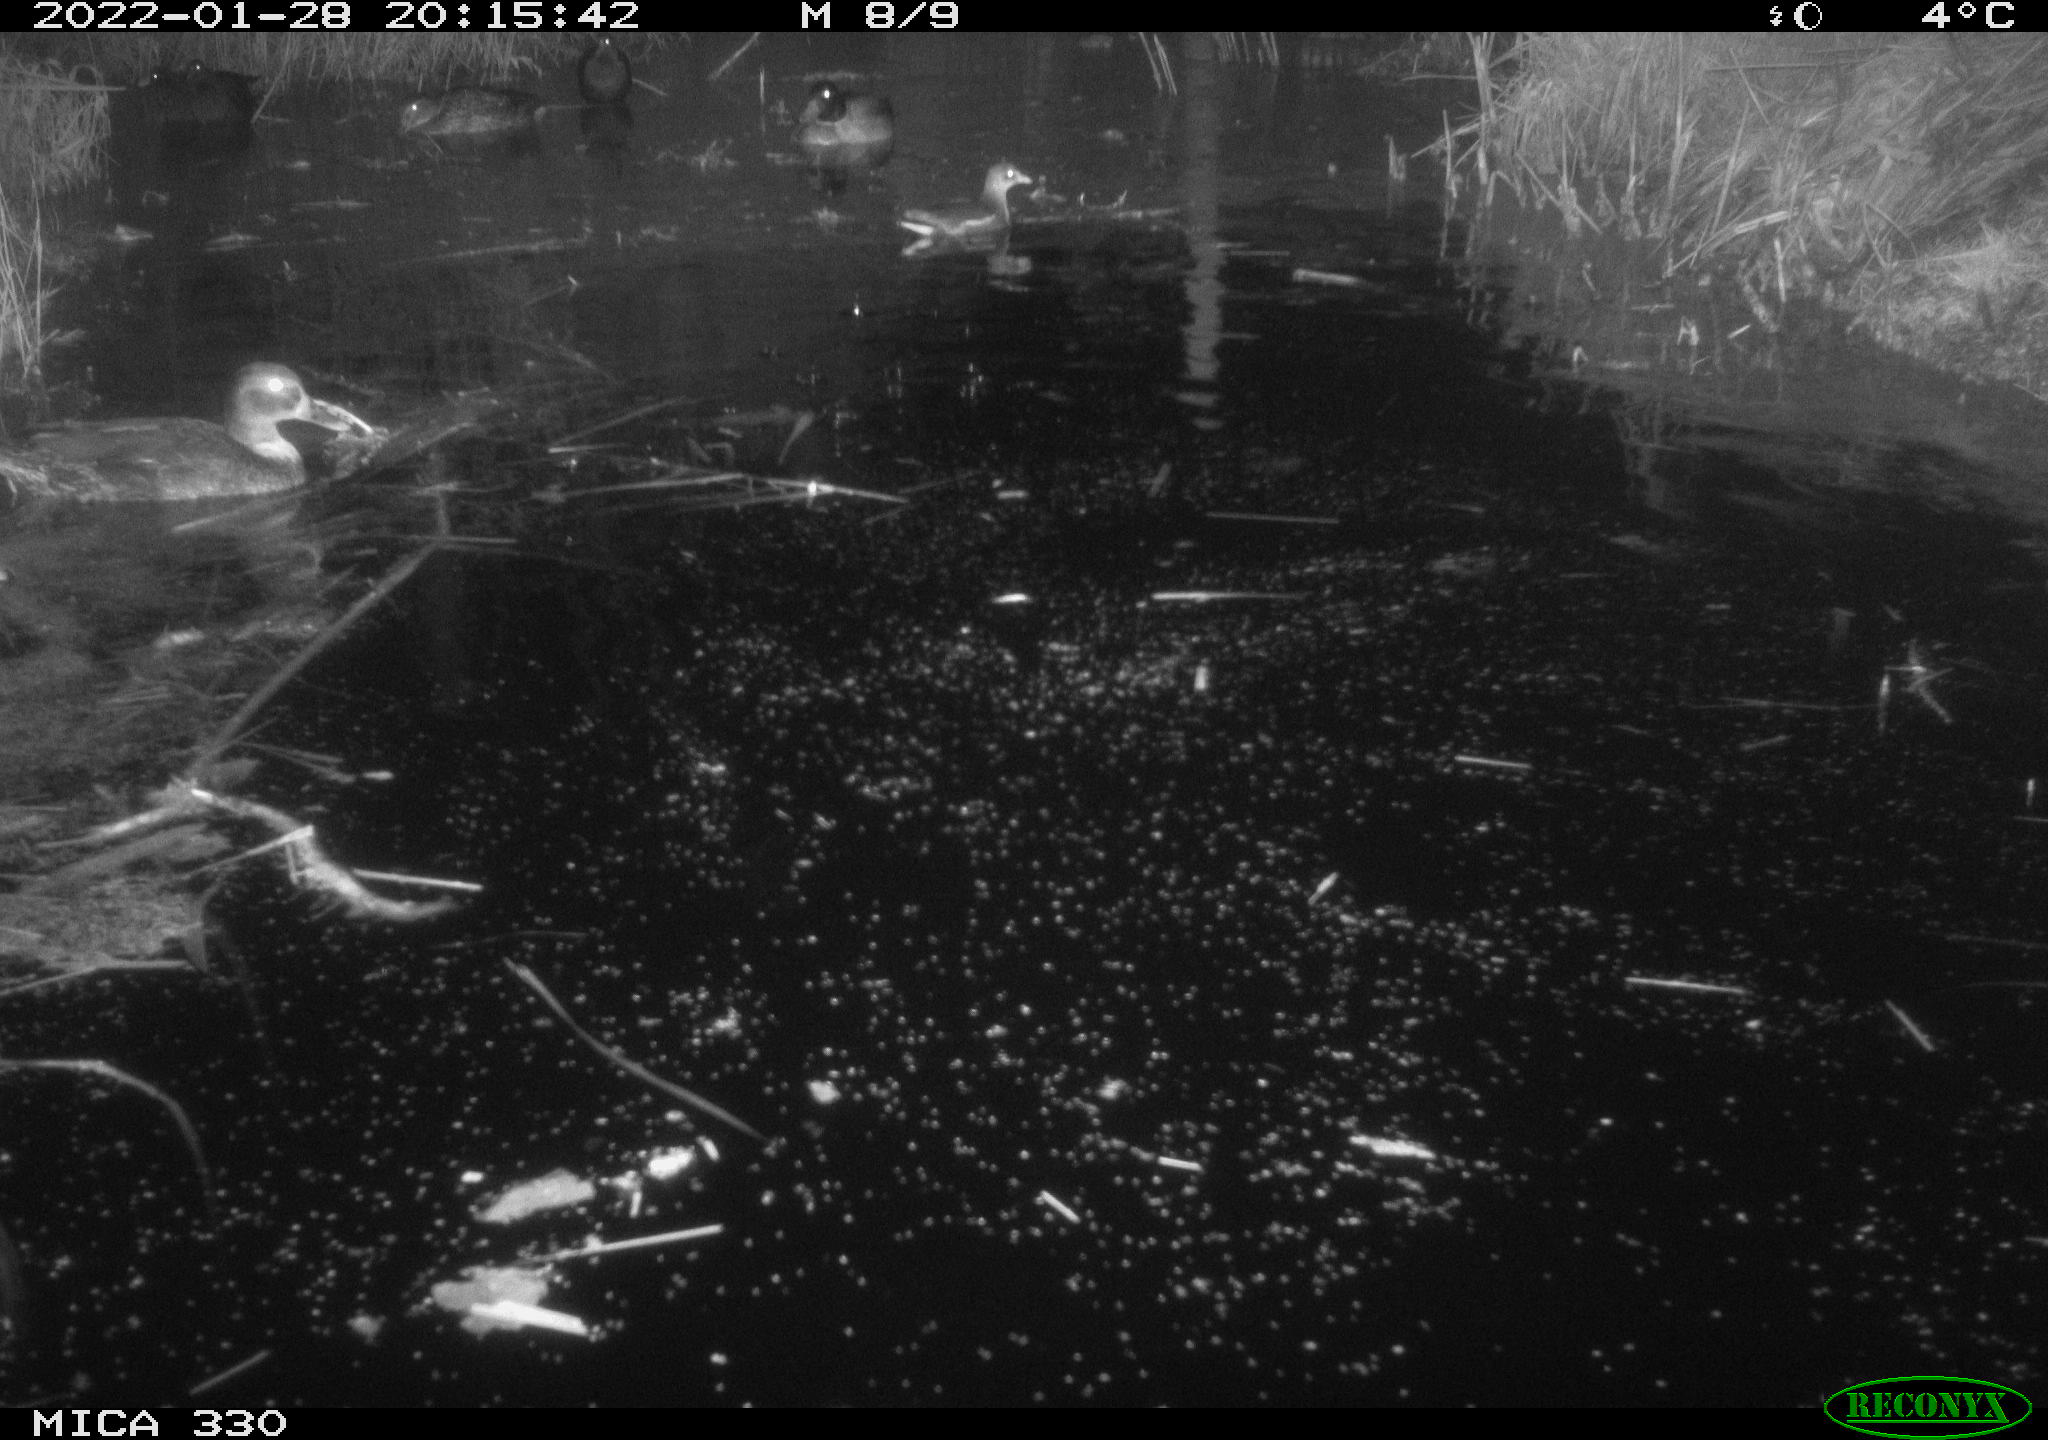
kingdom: Animalia
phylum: Chordata
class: Aves
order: Anseriformes
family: Anatidae
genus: Anas
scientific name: Anas platyrhynchos
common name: Mallard
